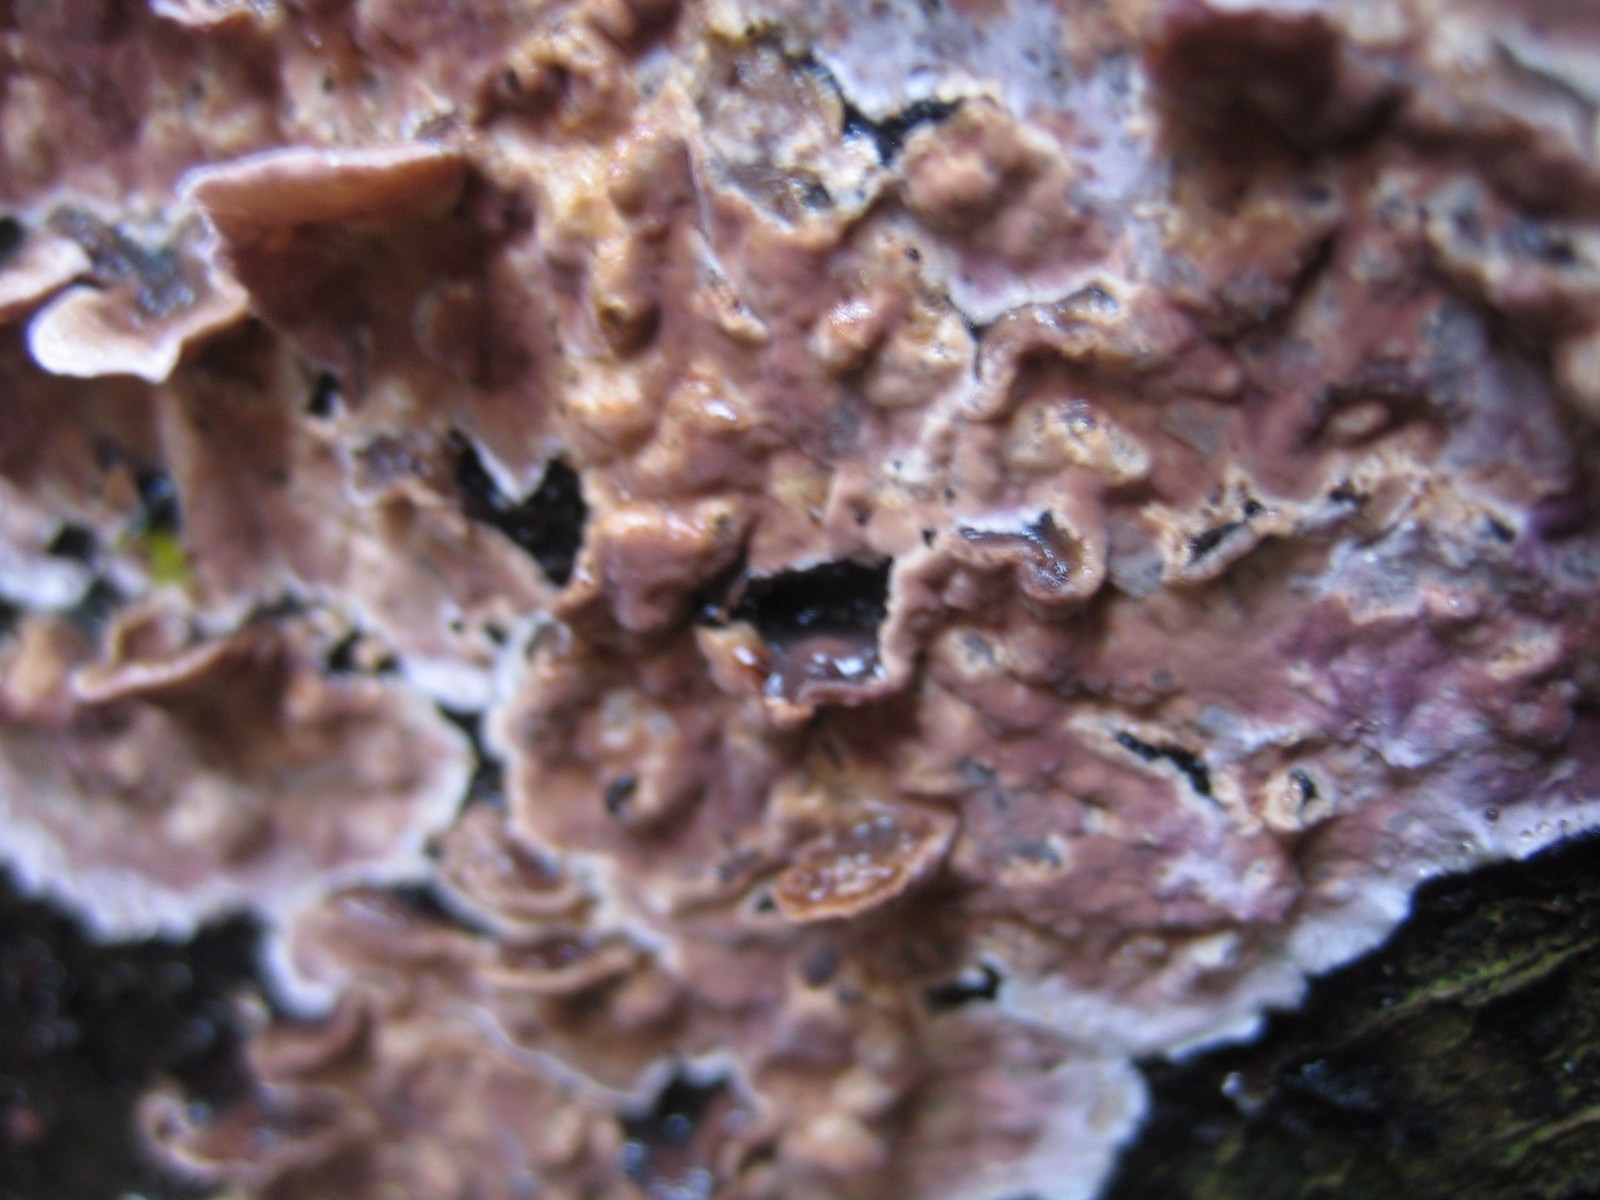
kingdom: Fungi
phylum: Basidiomycota
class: Agaricomycetes
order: Corticiales
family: Corticiaceae
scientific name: Corticiaceae
